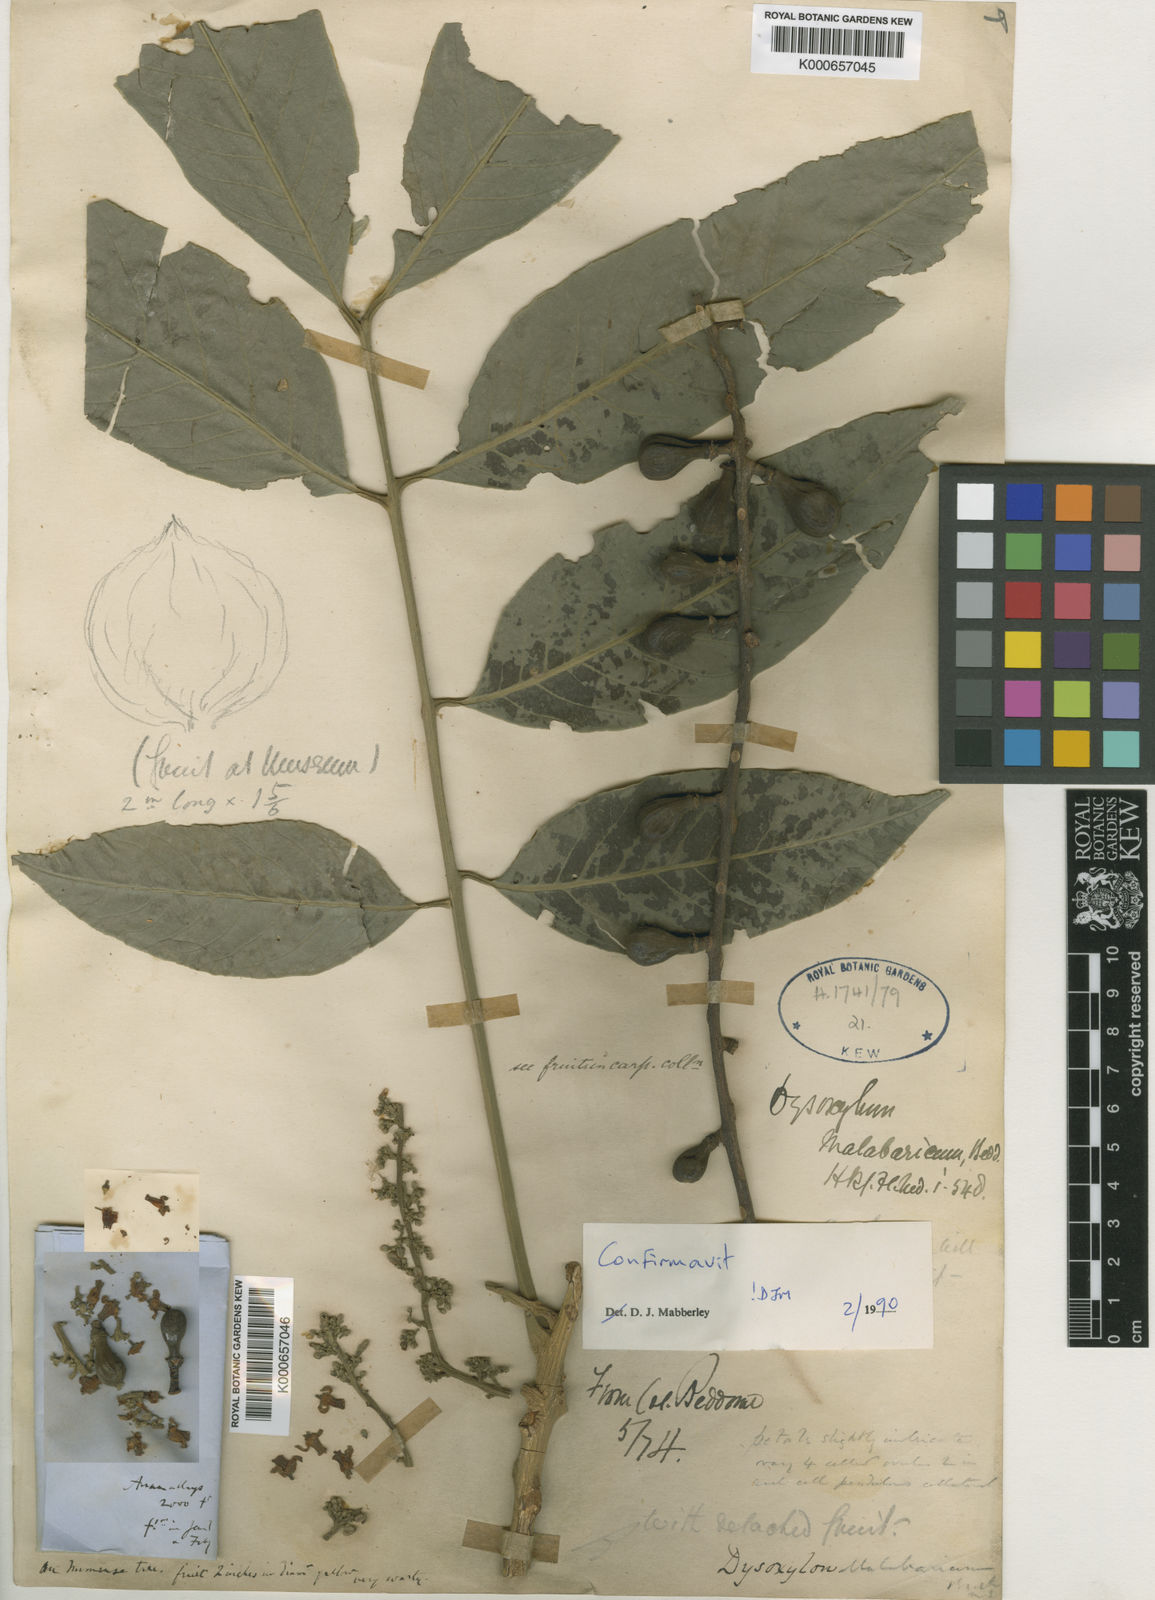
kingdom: Plantae
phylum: Tracheophyta
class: Magnoliopsida
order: Sapindales
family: Meliaceae
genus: Dysoxylum
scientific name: Dysoxylum malabaricum
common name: White cedar
